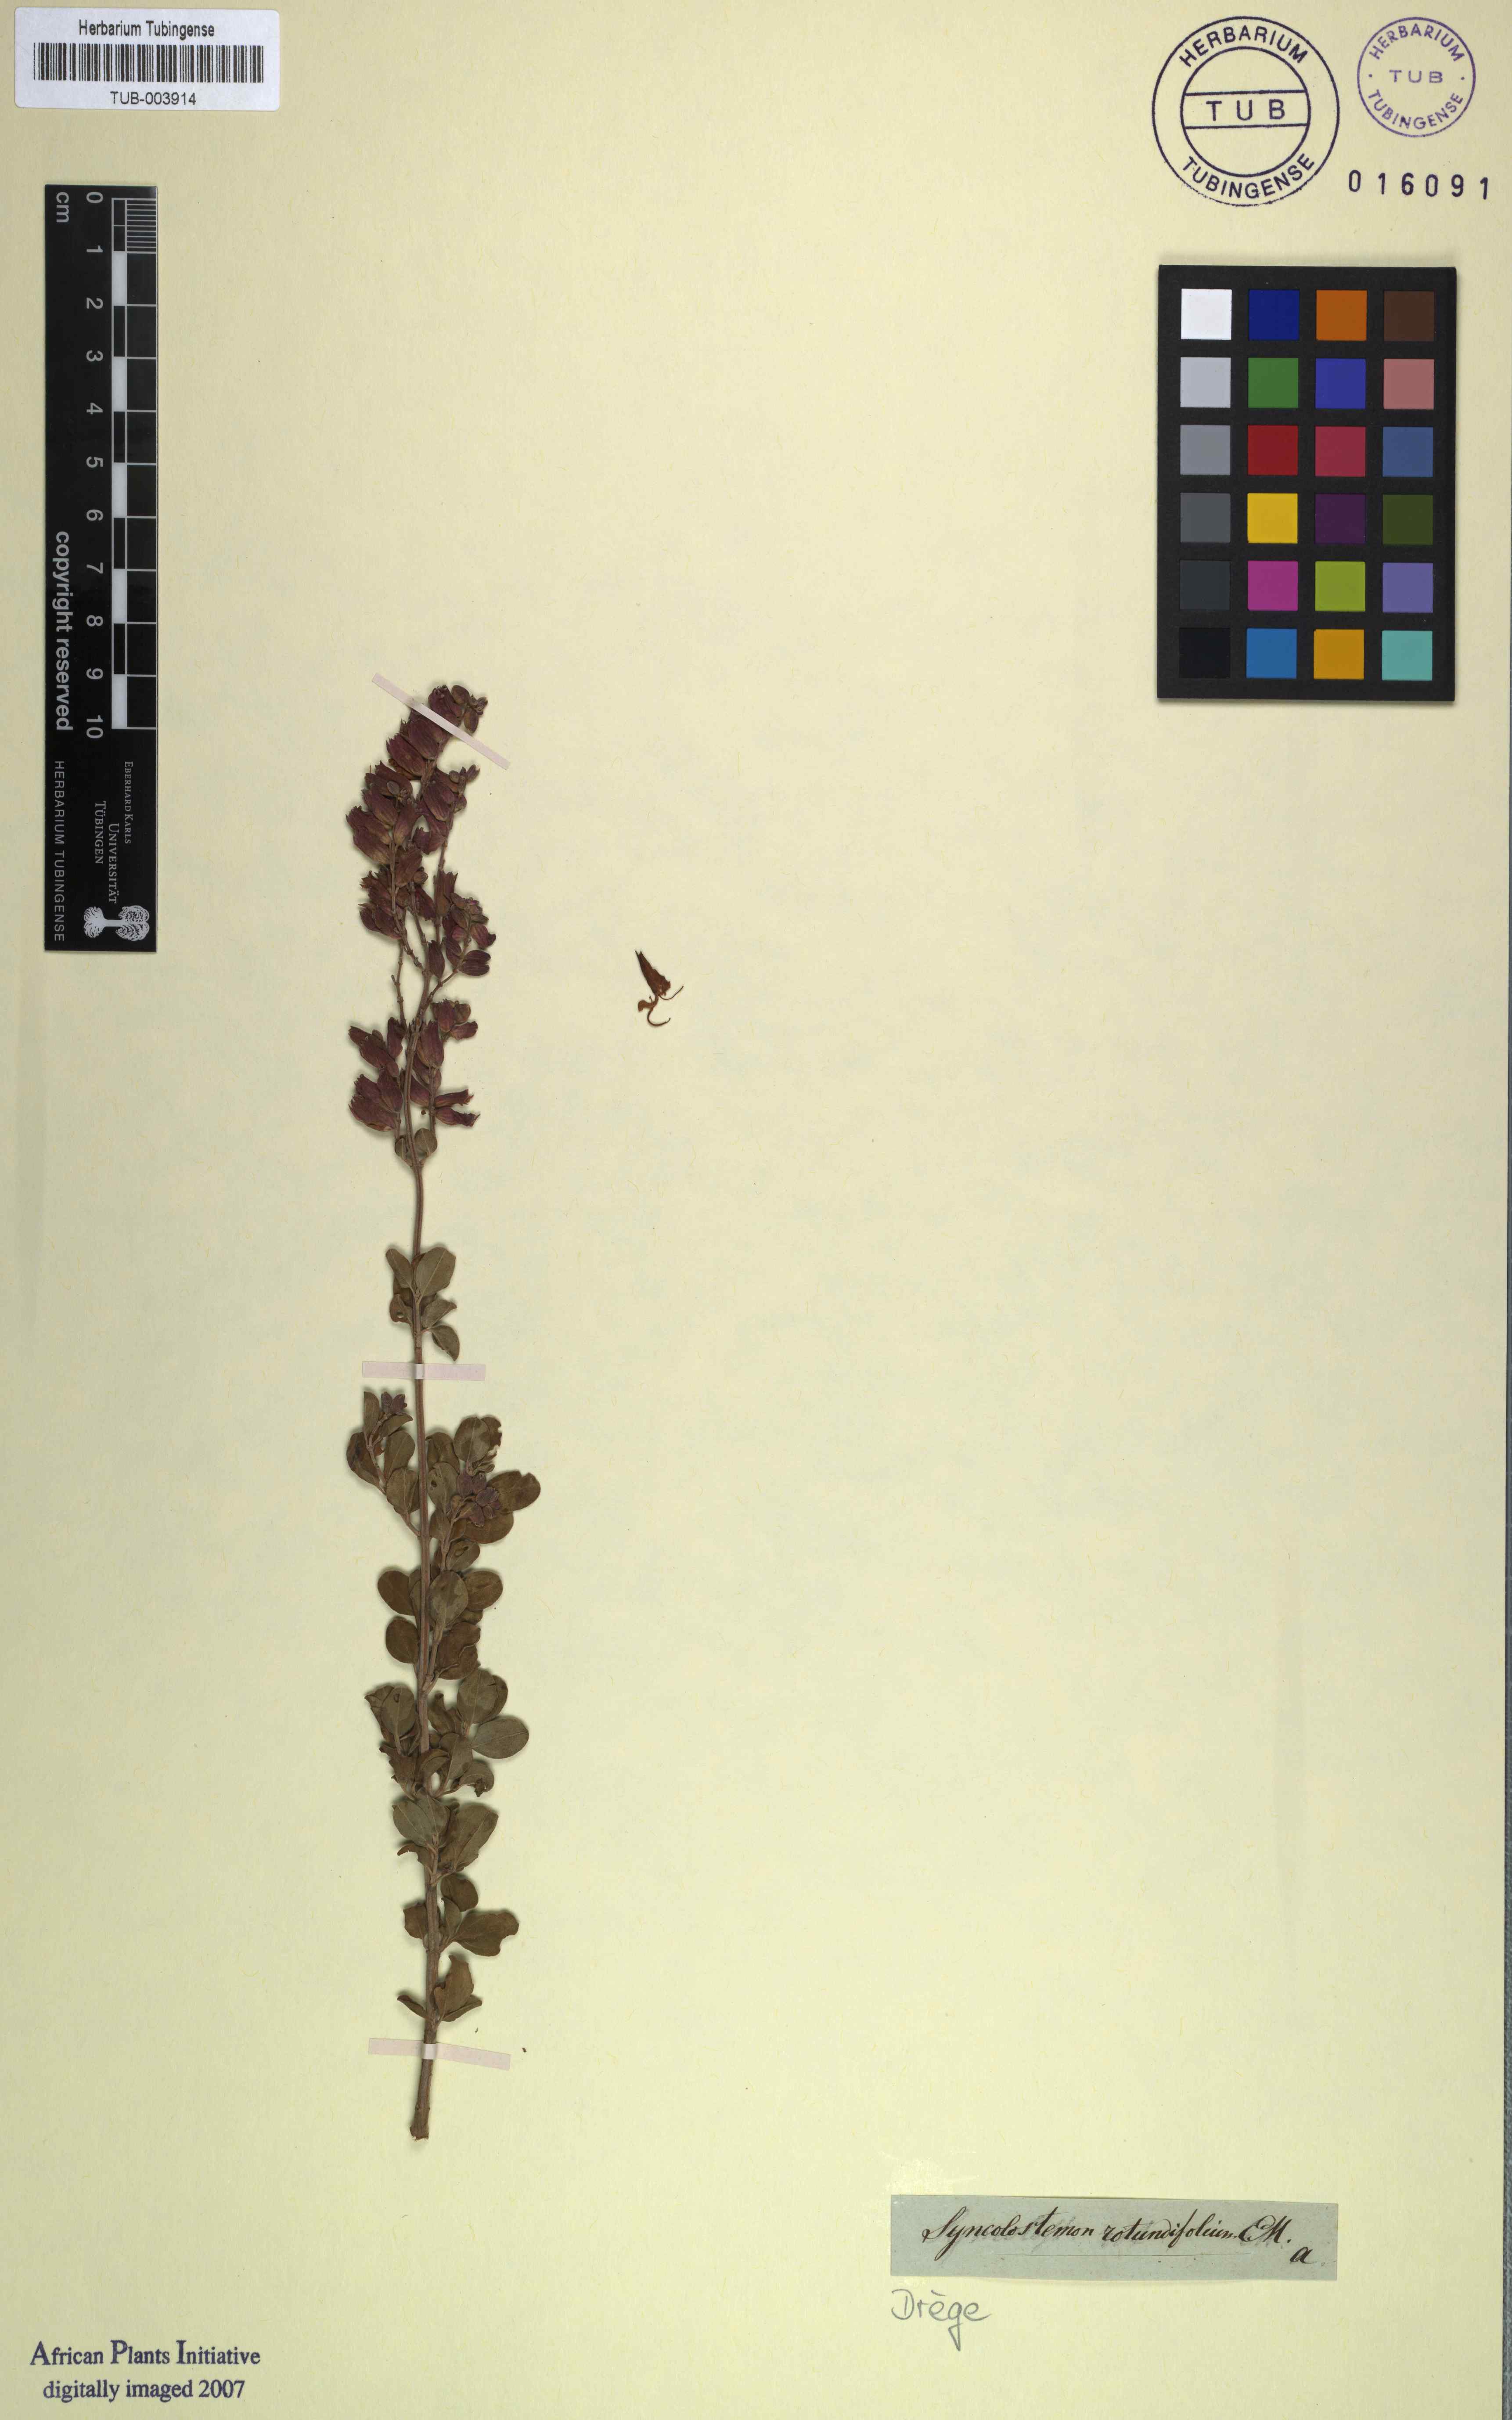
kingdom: Plantae
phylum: Tracheophyta
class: Magnoliopsida
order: Lamiales
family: Lamiaceae
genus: Syncolostemon
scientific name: Syncolostemon rotundifolius
